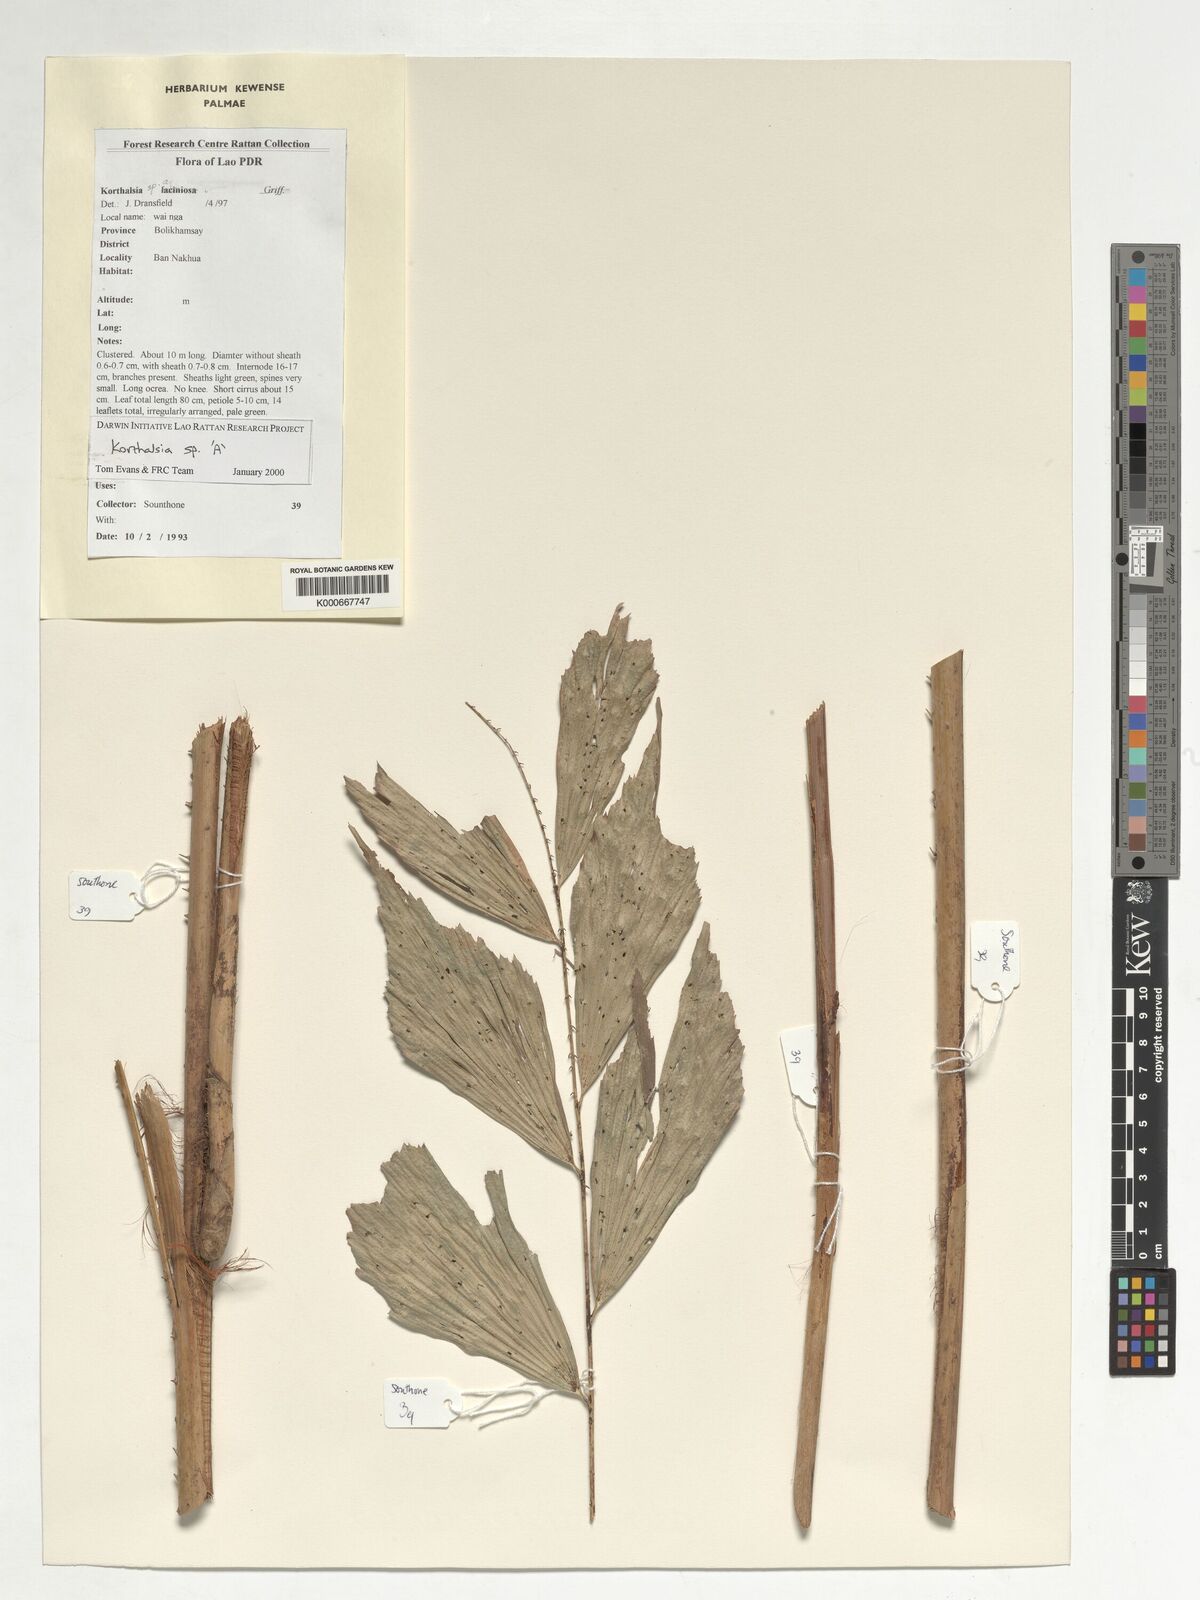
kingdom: Plantae
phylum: Tracheophyta
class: Liliopsida
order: Arecales
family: Arecaceae
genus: Korthalsia
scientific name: Korthalsia
